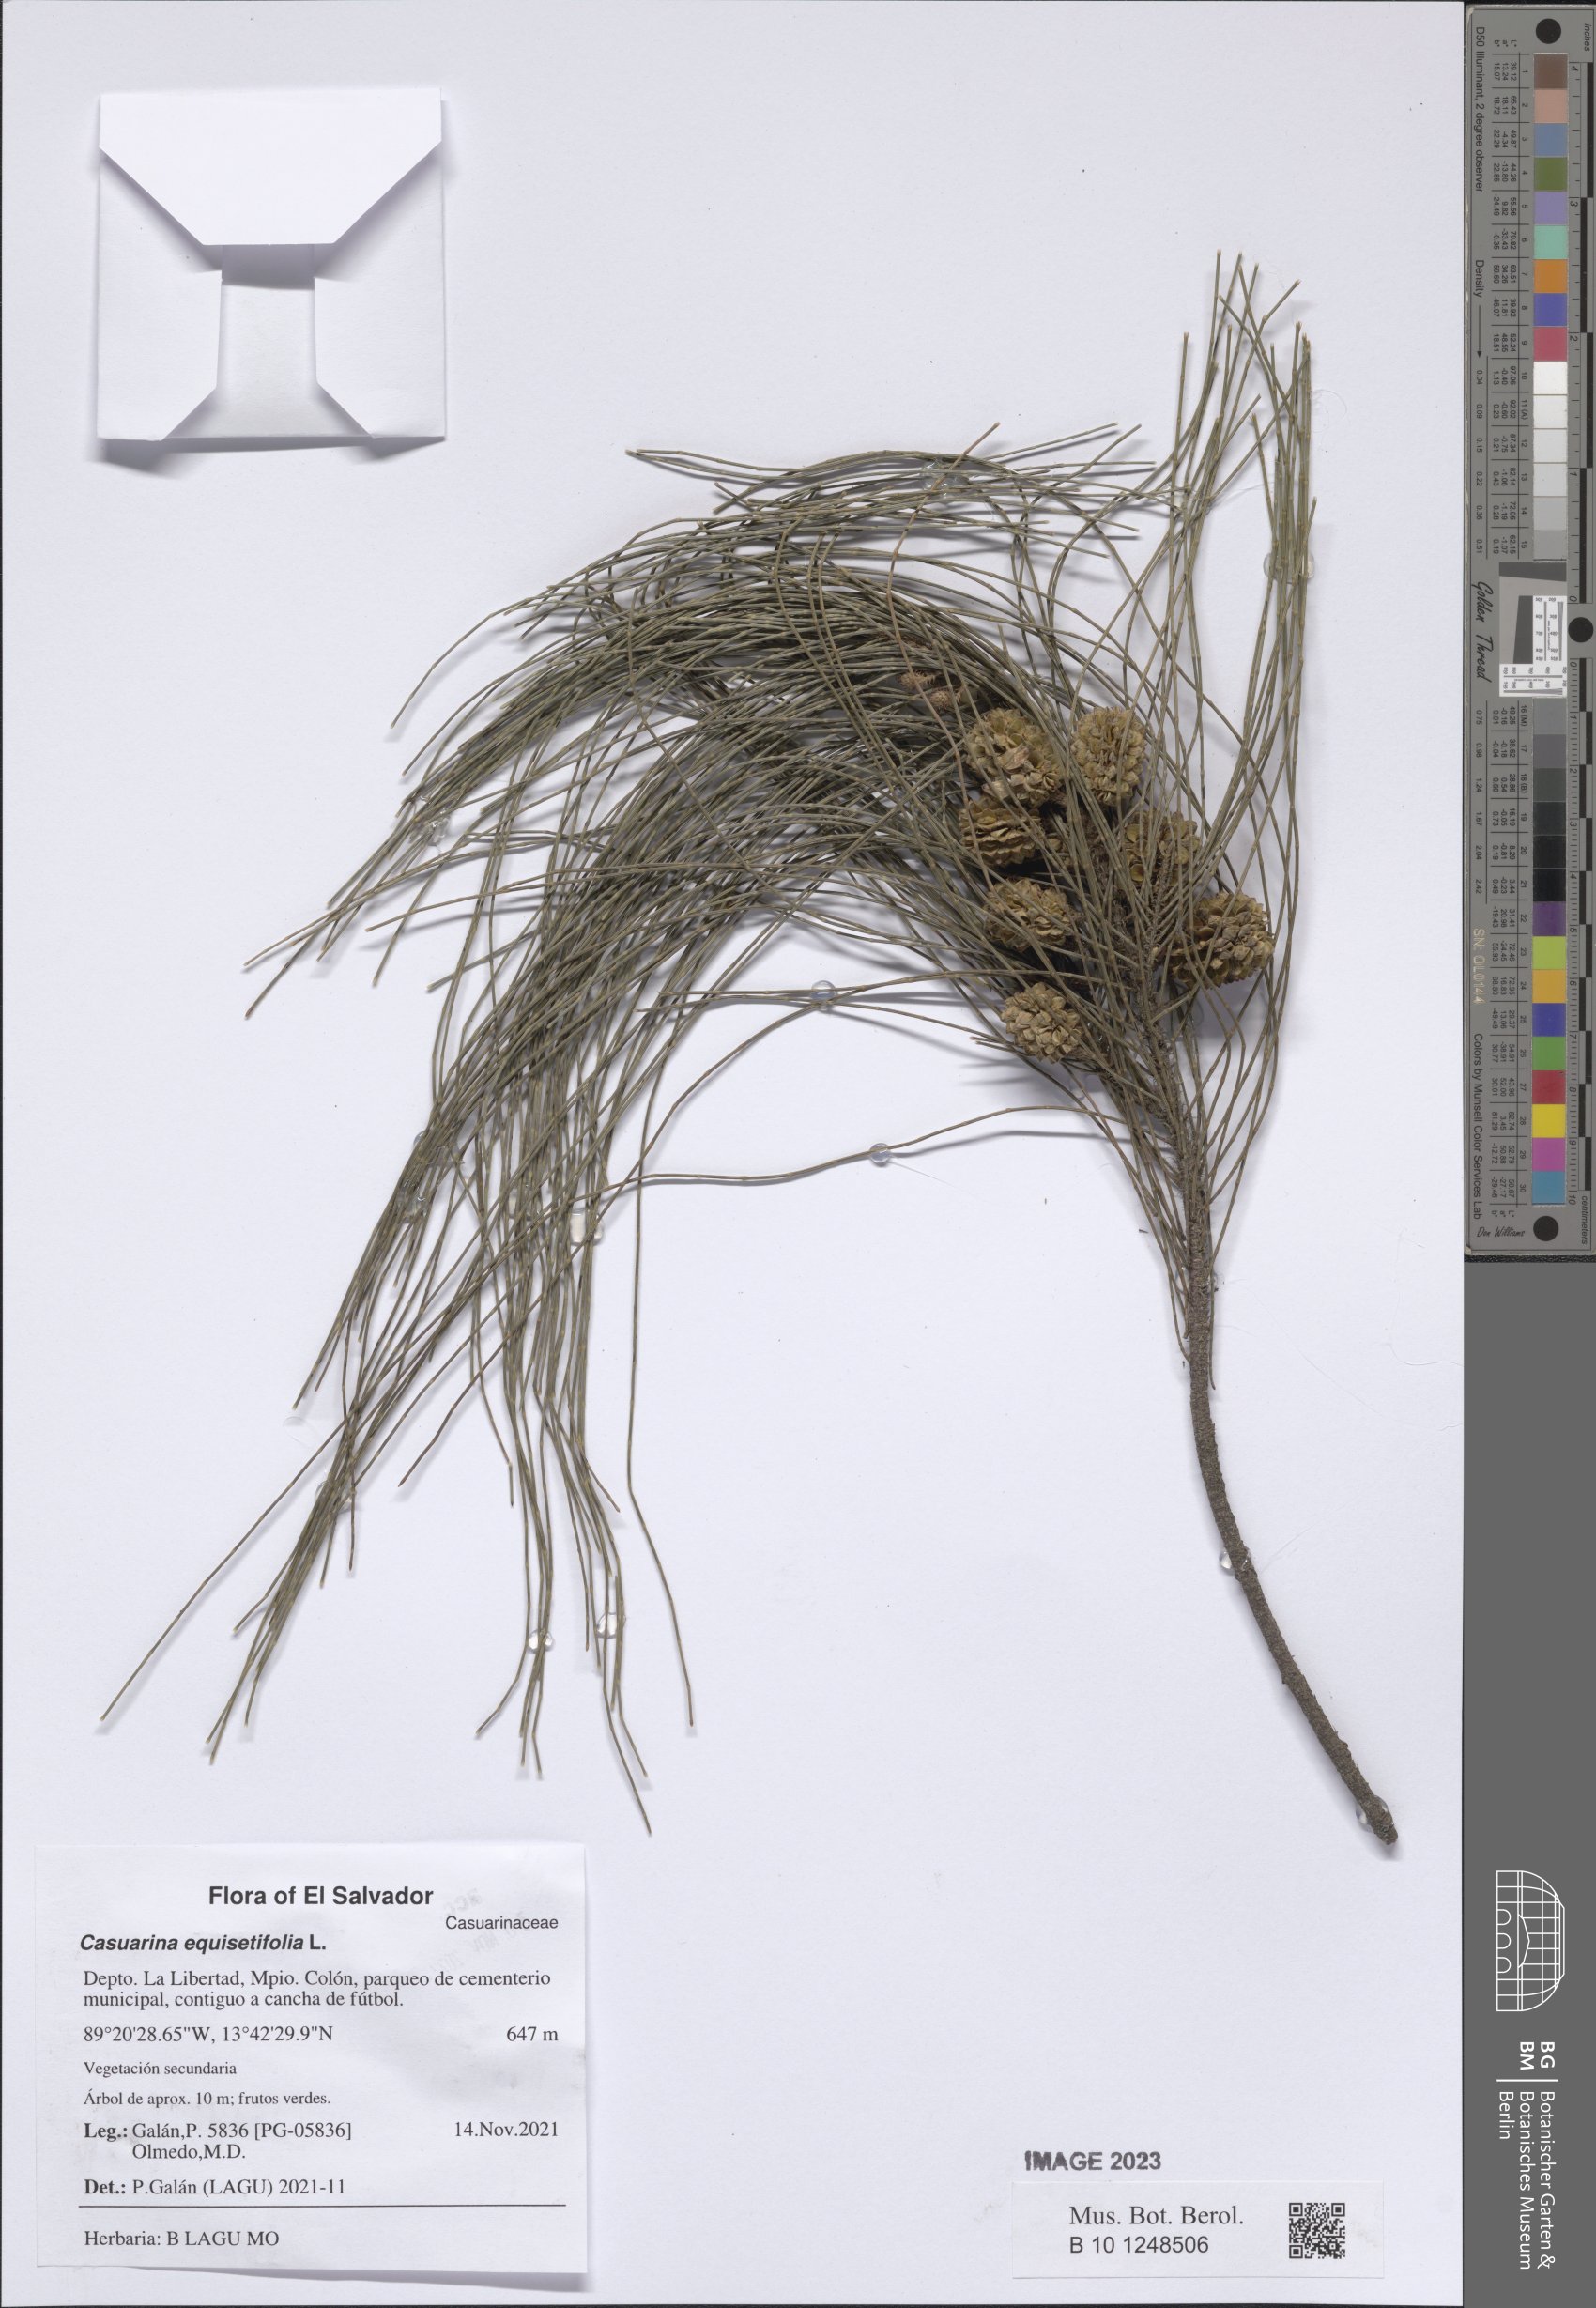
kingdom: Plantae
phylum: Tracheophyta
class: Magnoliopsida
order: Fagales
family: Casuarinaceae
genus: Casuarina
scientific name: Casuarina equisetifolia
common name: Beach sheoak
